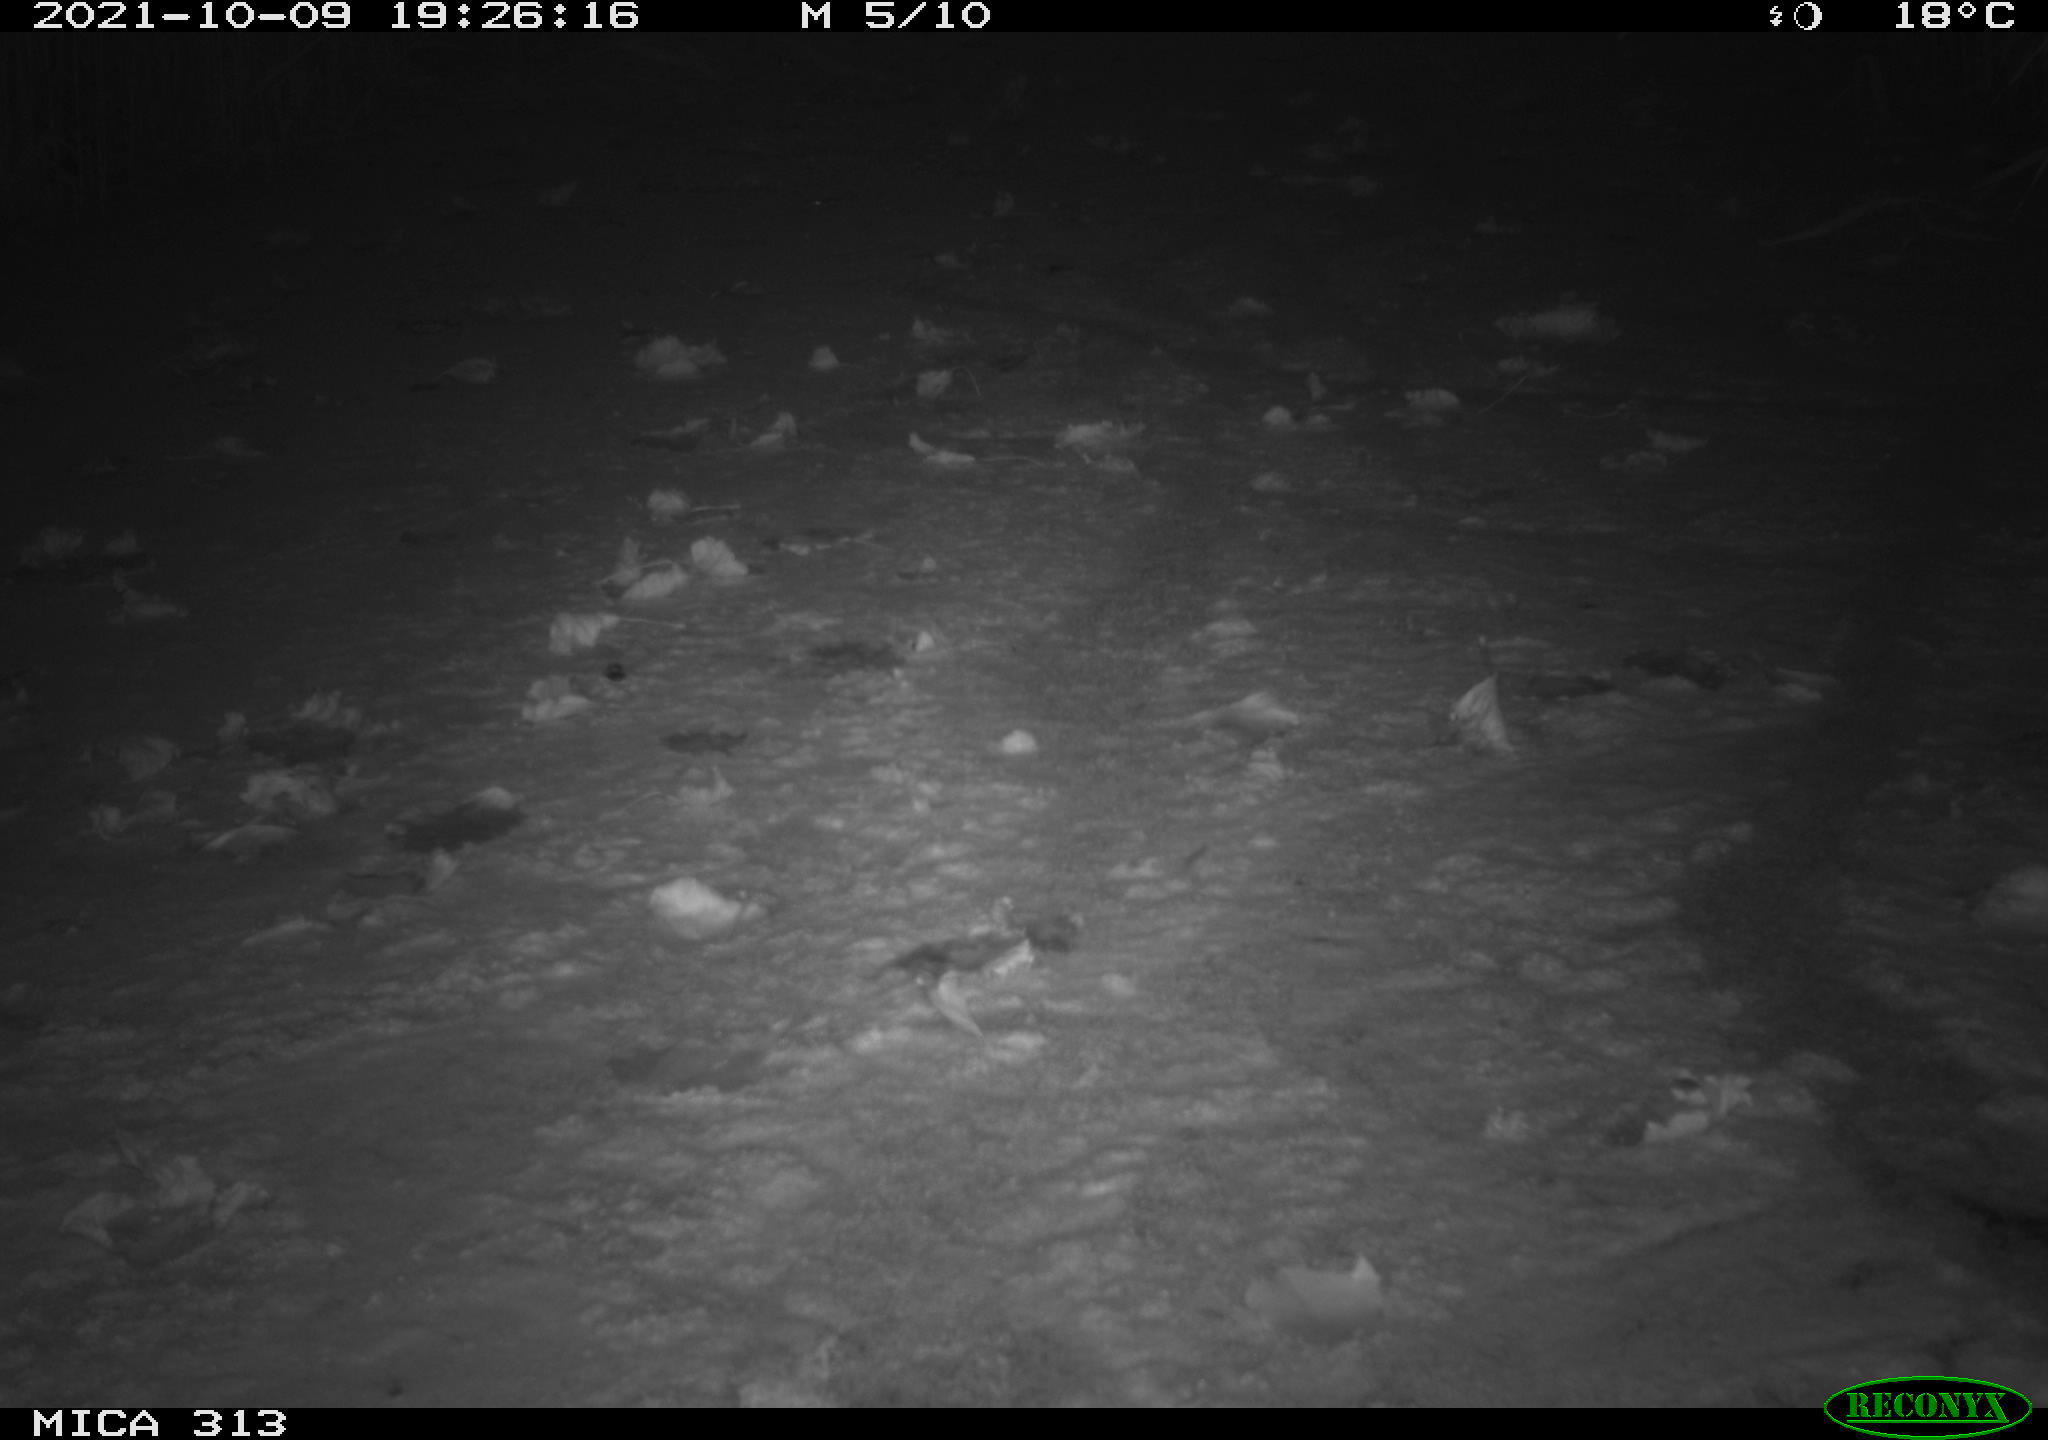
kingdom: Animalia
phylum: Chordata
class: Aves
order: Gruiformes
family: Rallidae
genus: Gallinula
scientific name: Gallinula chloropus
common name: Common moorhen
